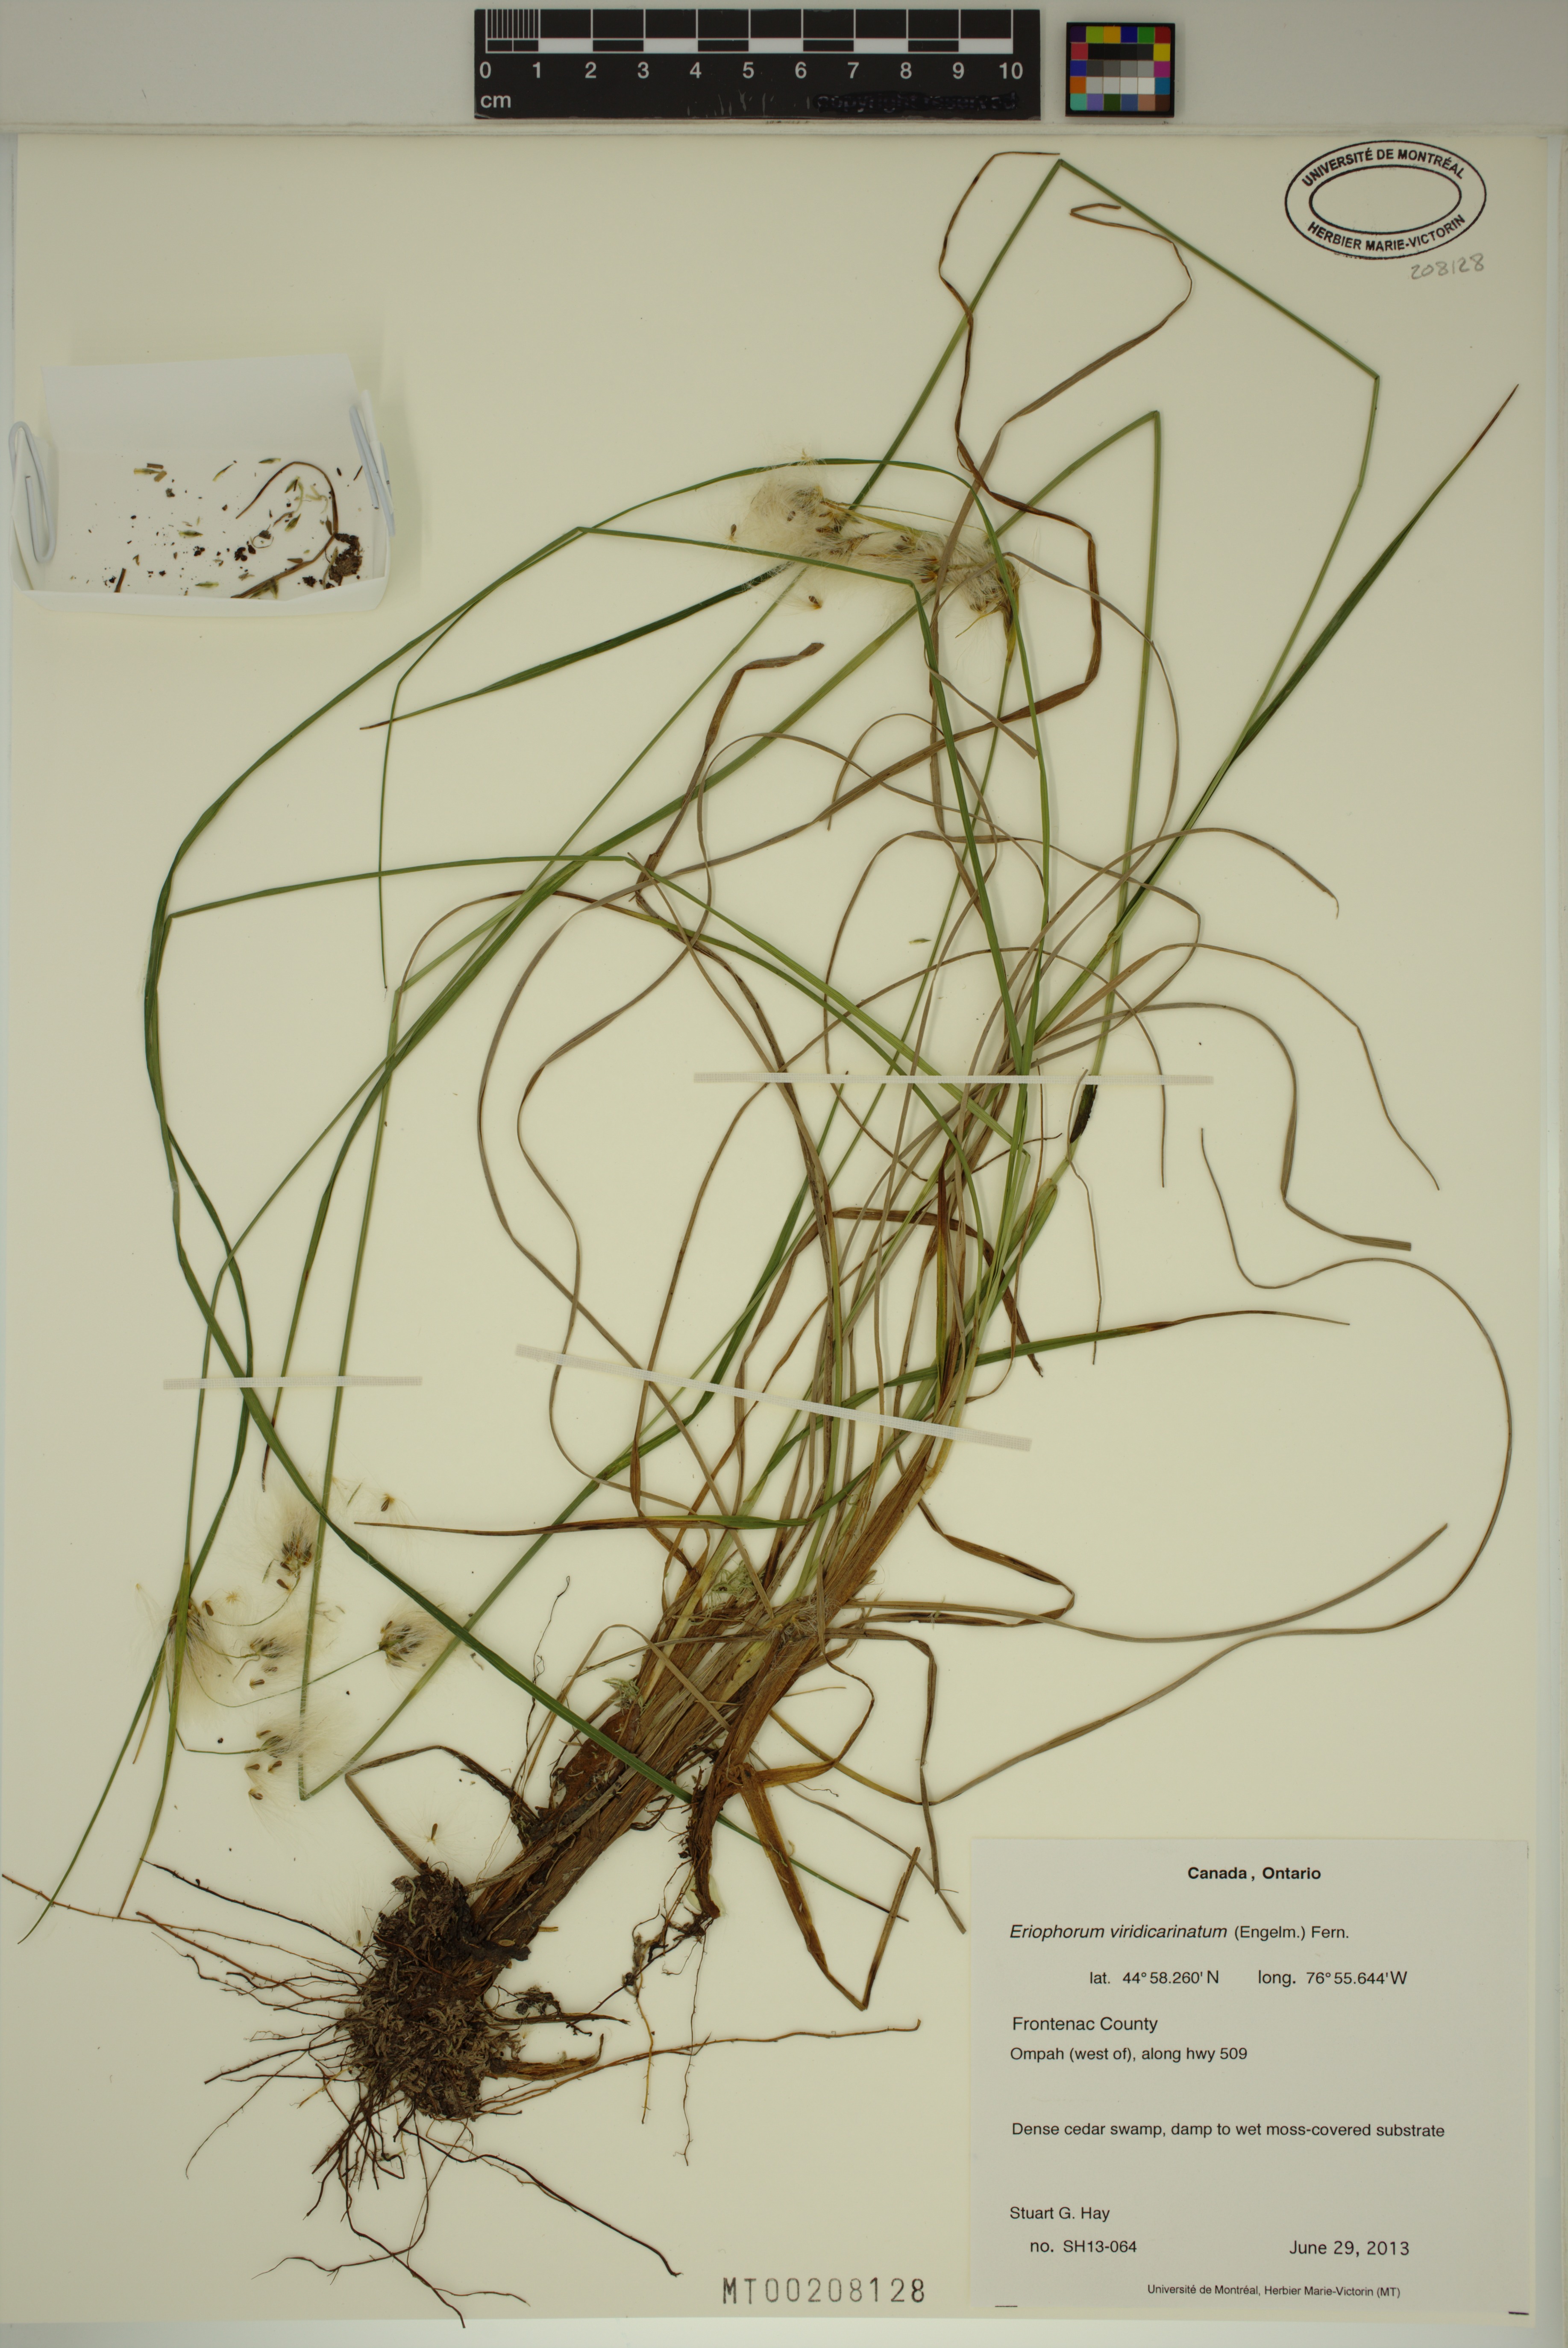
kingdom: Plantae
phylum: Tracheophyta
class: Liliopsida
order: Poales
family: Cyperaceae
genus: Eriophorum
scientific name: Eriophorum viridicarinatum
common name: Green-keeled cottongrass
